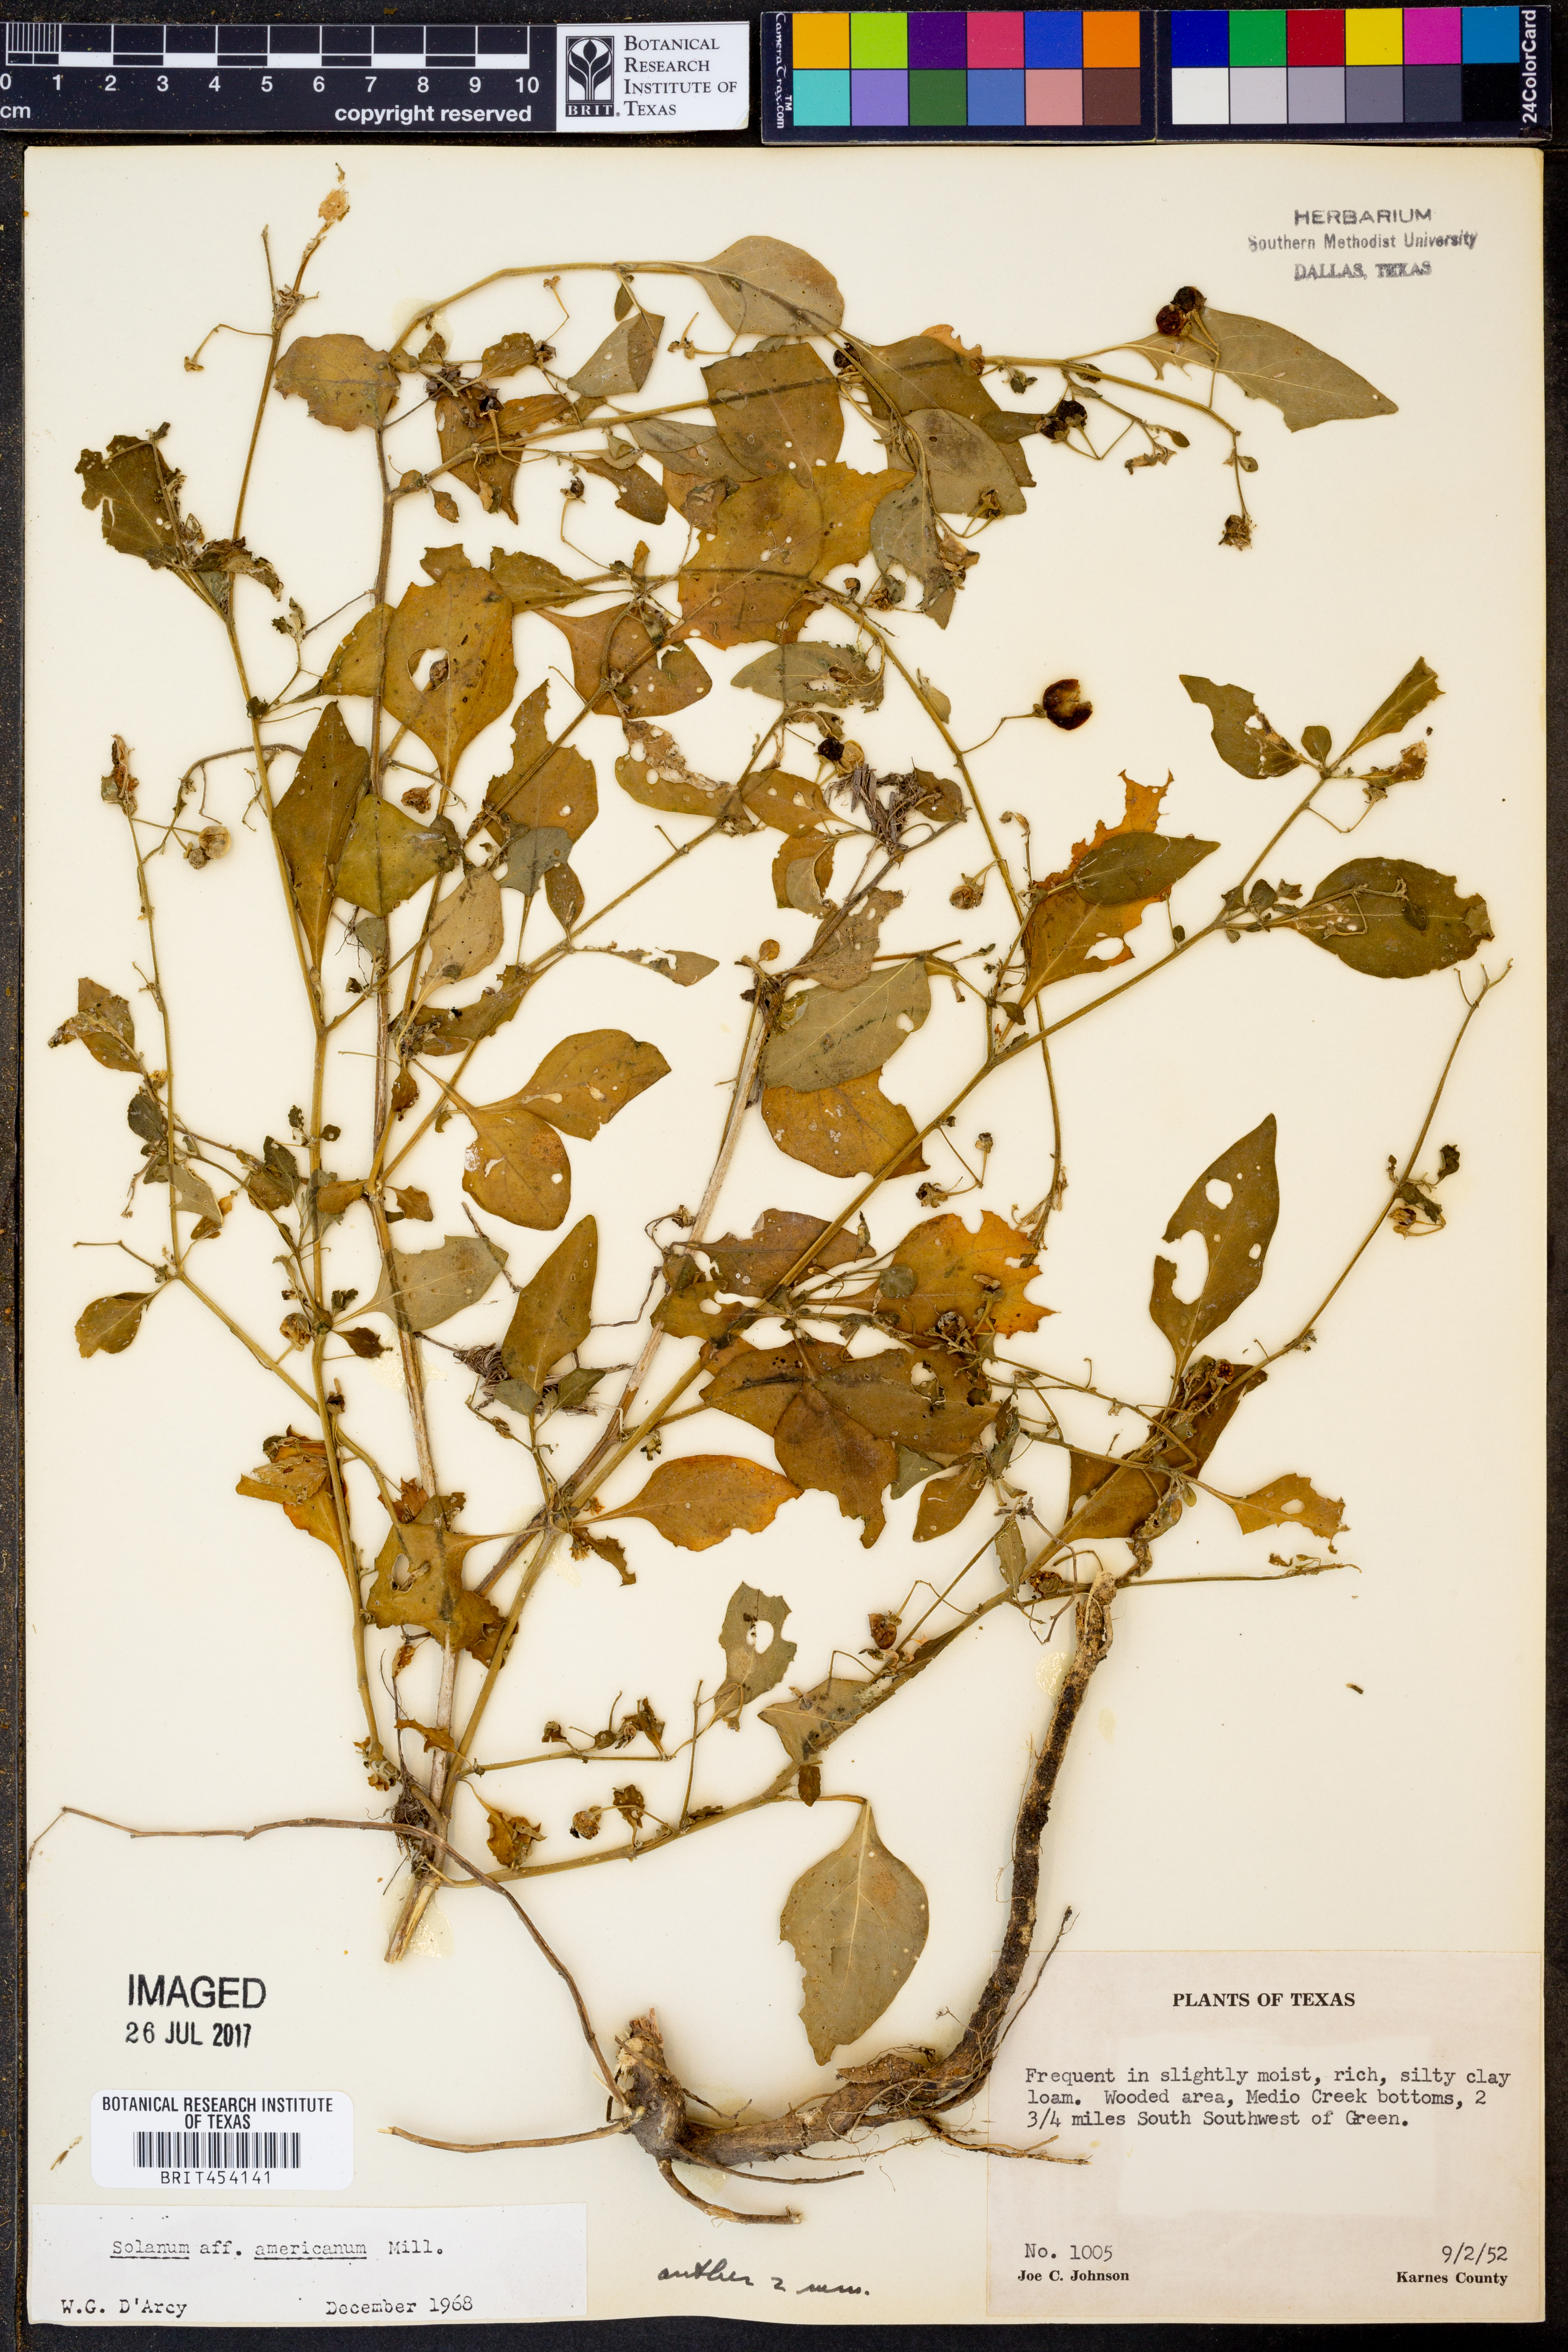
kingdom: Plantae
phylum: Tracheophyta
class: Magnoliopsida
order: Solanales
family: Solanaceae
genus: Solanum
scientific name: Solanum americanum
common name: American black nightshade
